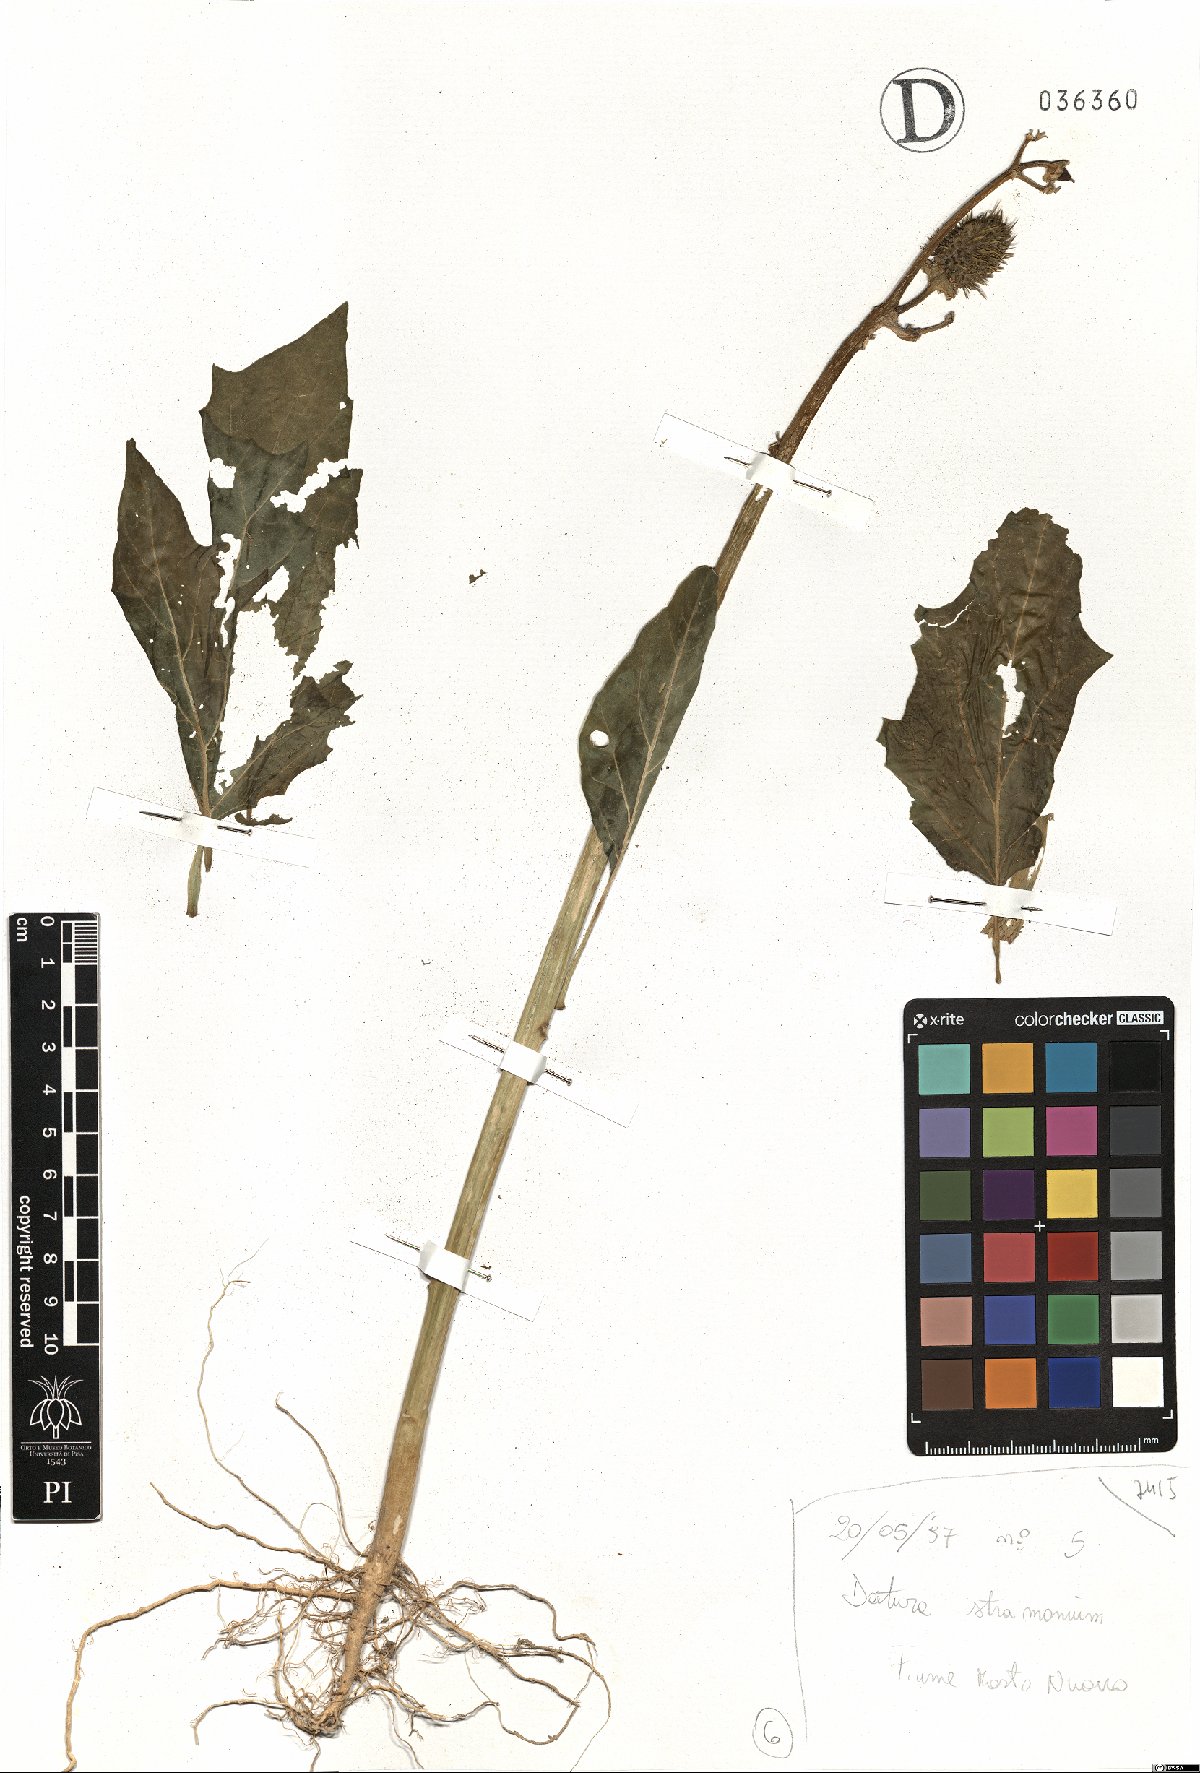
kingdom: Plantae
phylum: Tracheophyta
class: Magnoliopsida
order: Solanales
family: Solanaceae
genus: Datura
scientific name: Datura stramonium
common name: Thorn-apple
